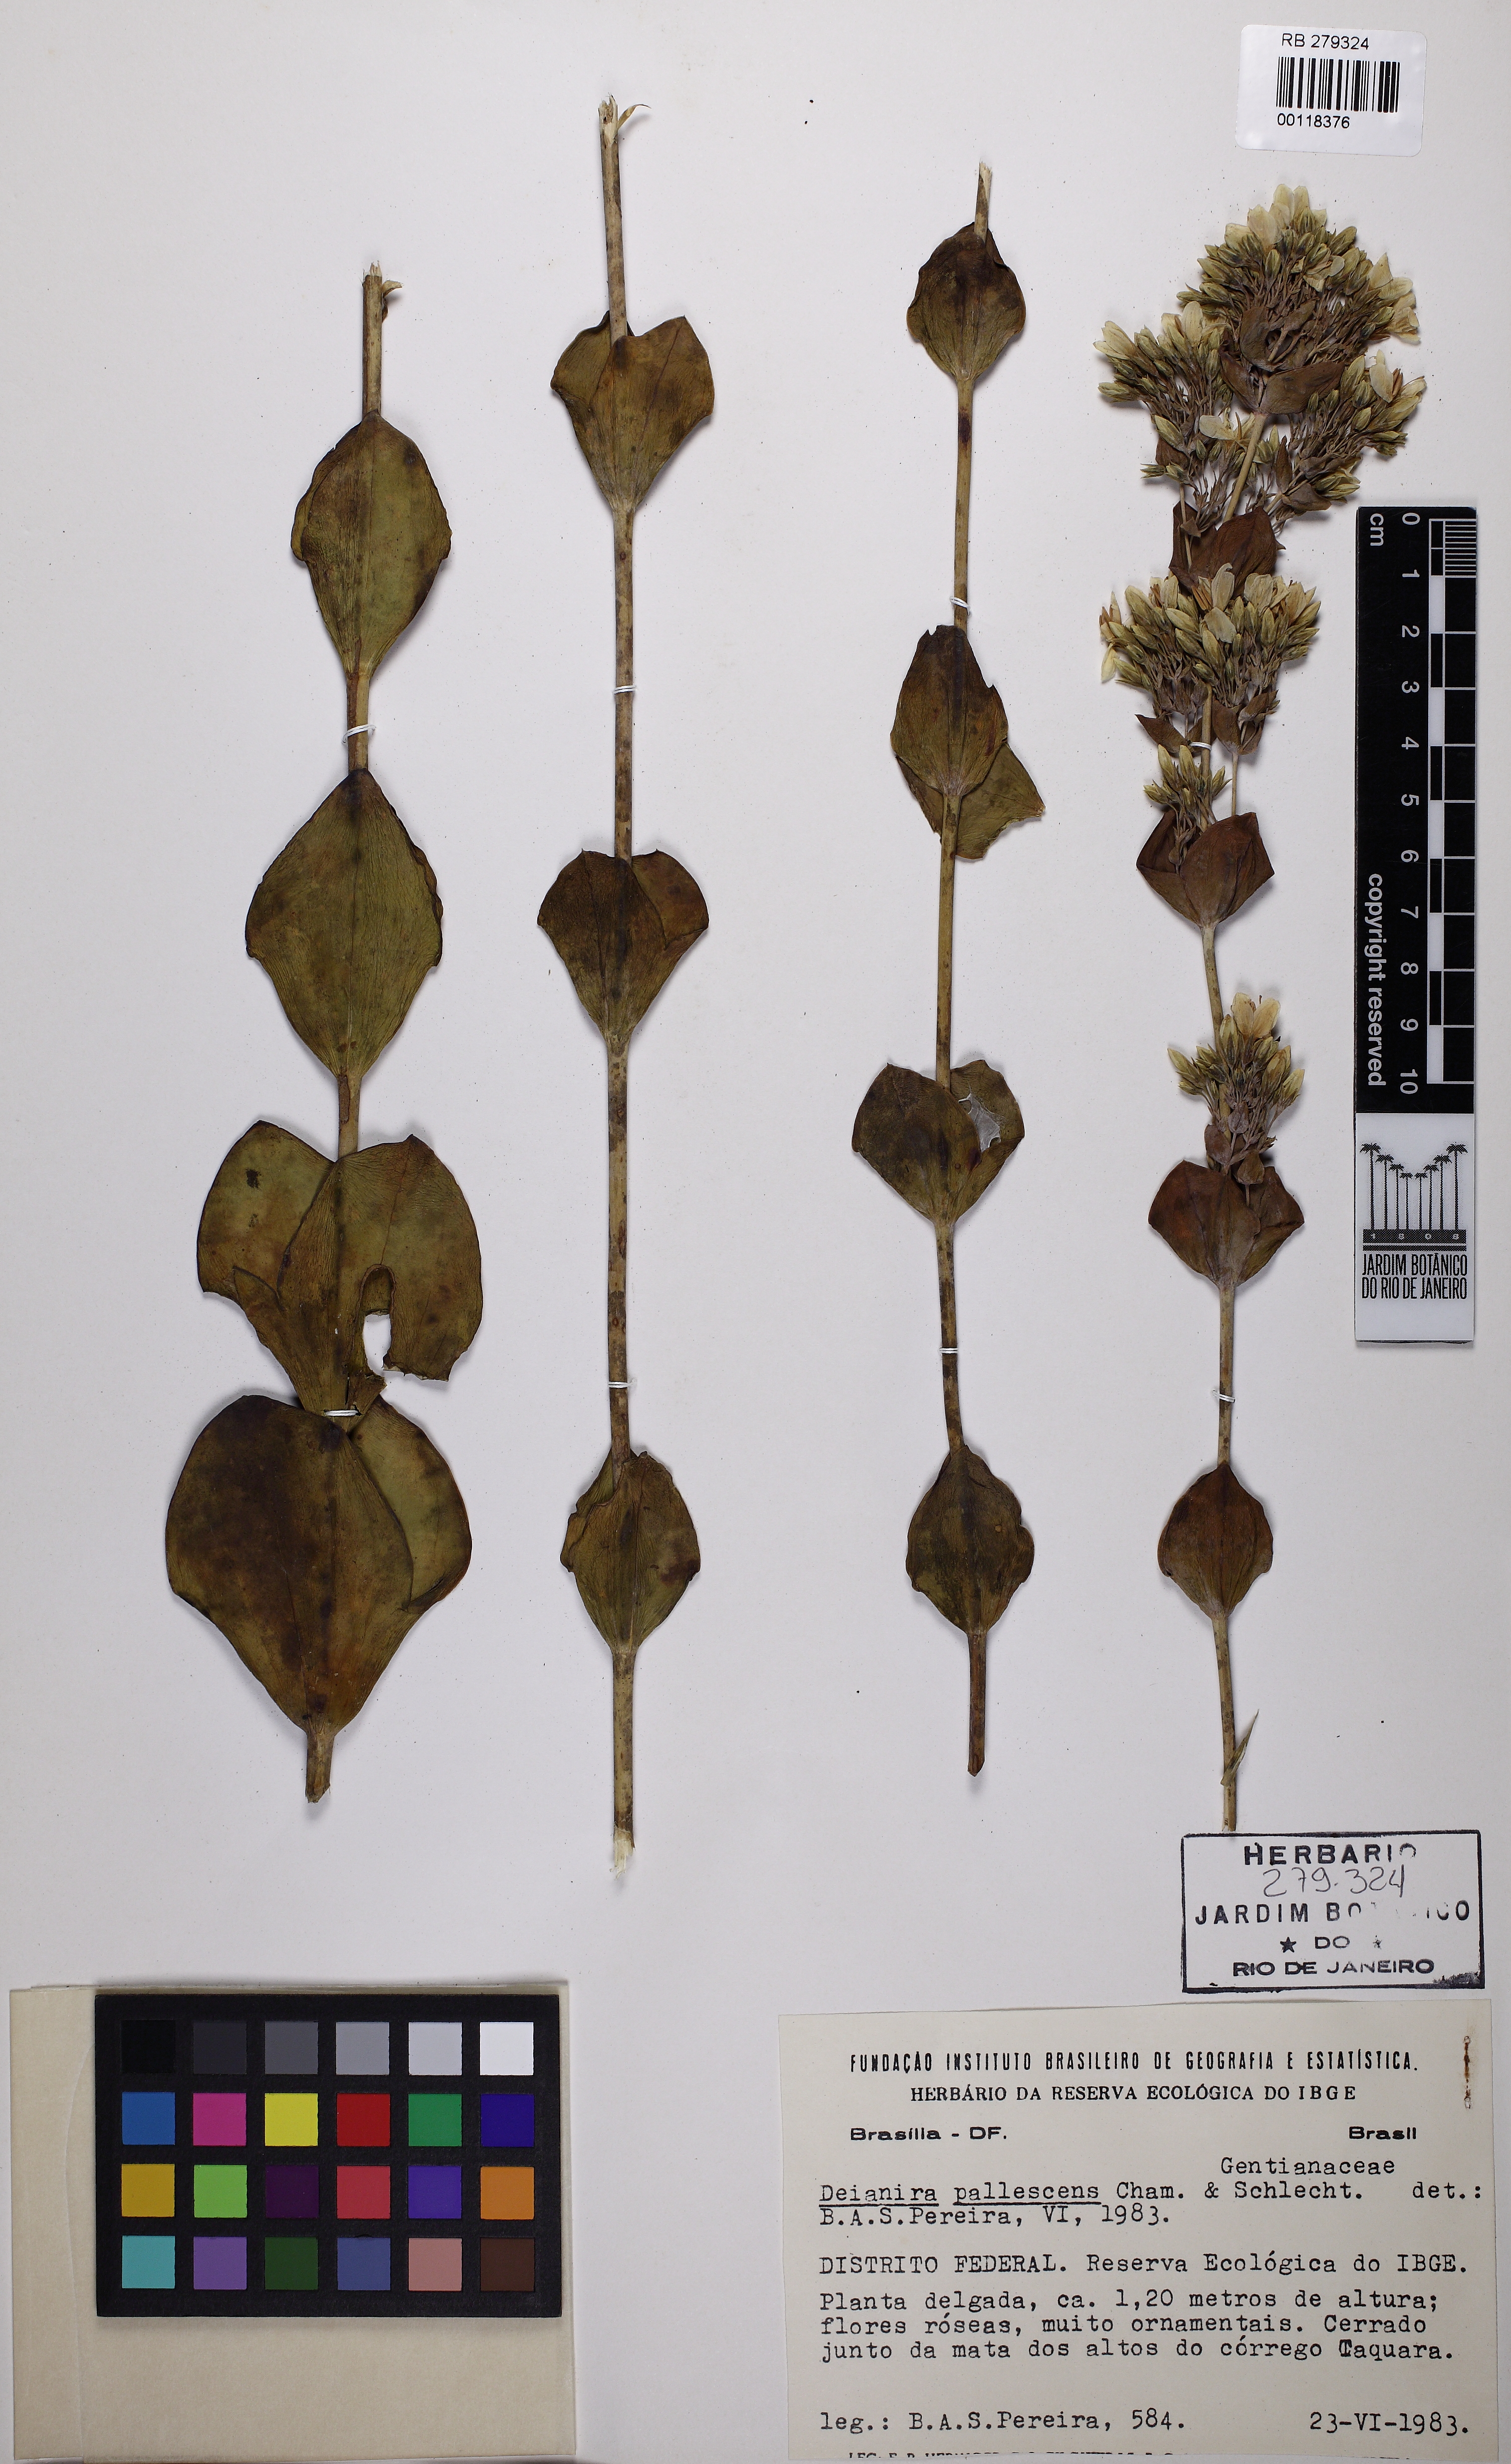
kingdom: Plantae
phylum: Tracheophyta
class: Magnoliopsida
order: Gentianales
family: Gentianaceae
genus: Deianira
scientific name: Deianira pallescens
